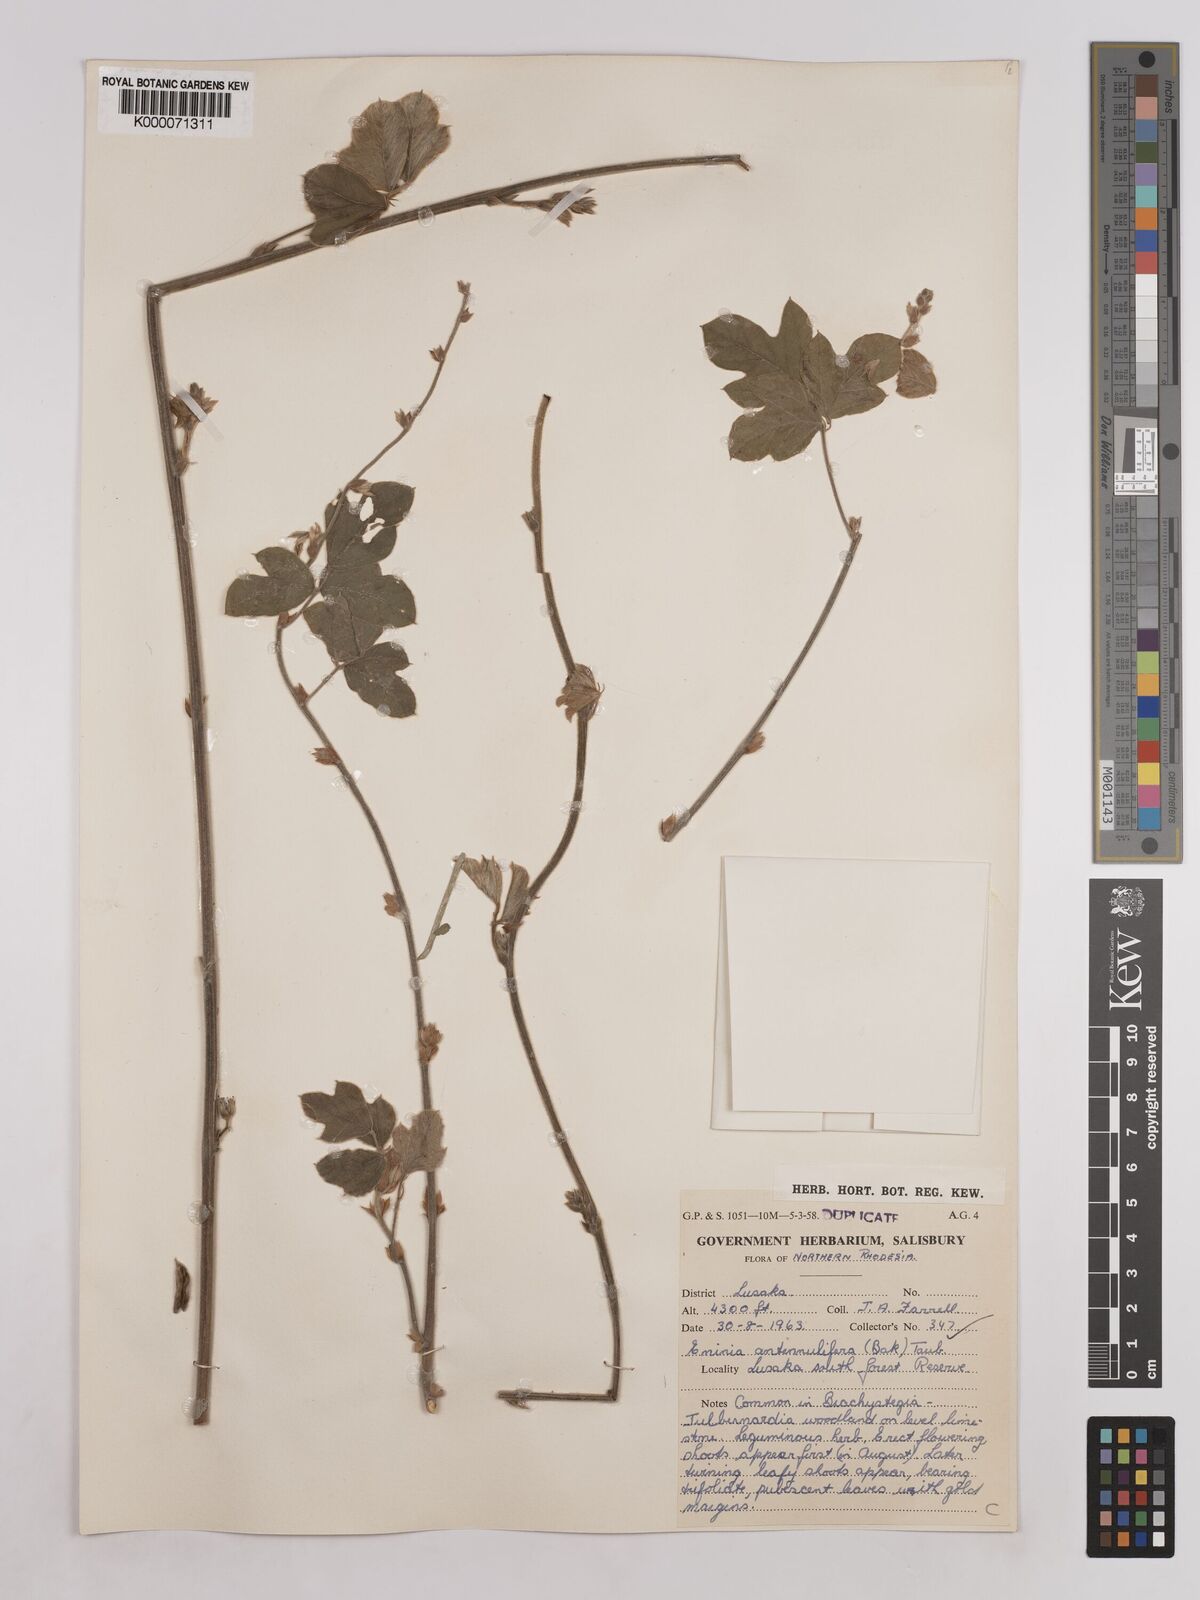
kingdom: Plantae
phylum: Tracheophyta
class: Magnoliopsida
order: Fabales
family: Fabaceae
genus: Eminia
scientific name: Eminia antennulifera
